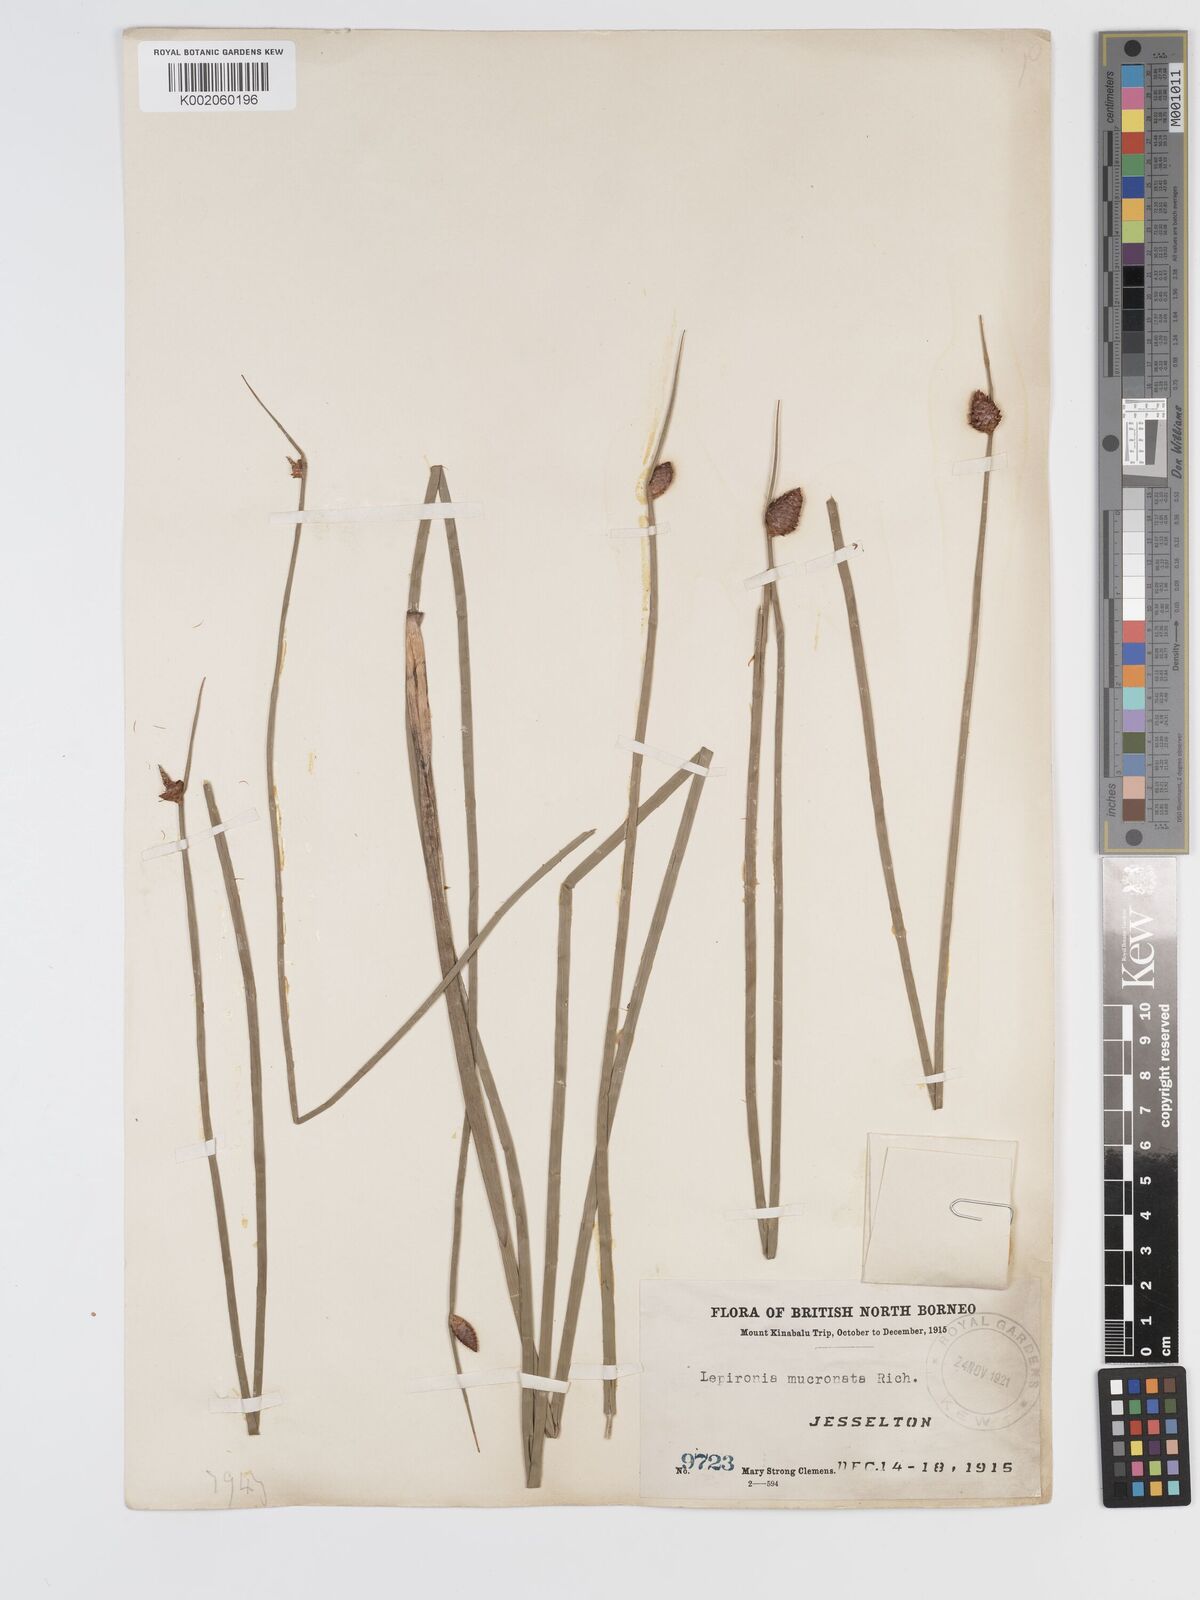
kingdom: Plantae
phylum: Tracheophyta
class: Liliopsida
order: Poales
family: Cyperaceae
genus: Lepironia
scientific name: Lepironia articulata
